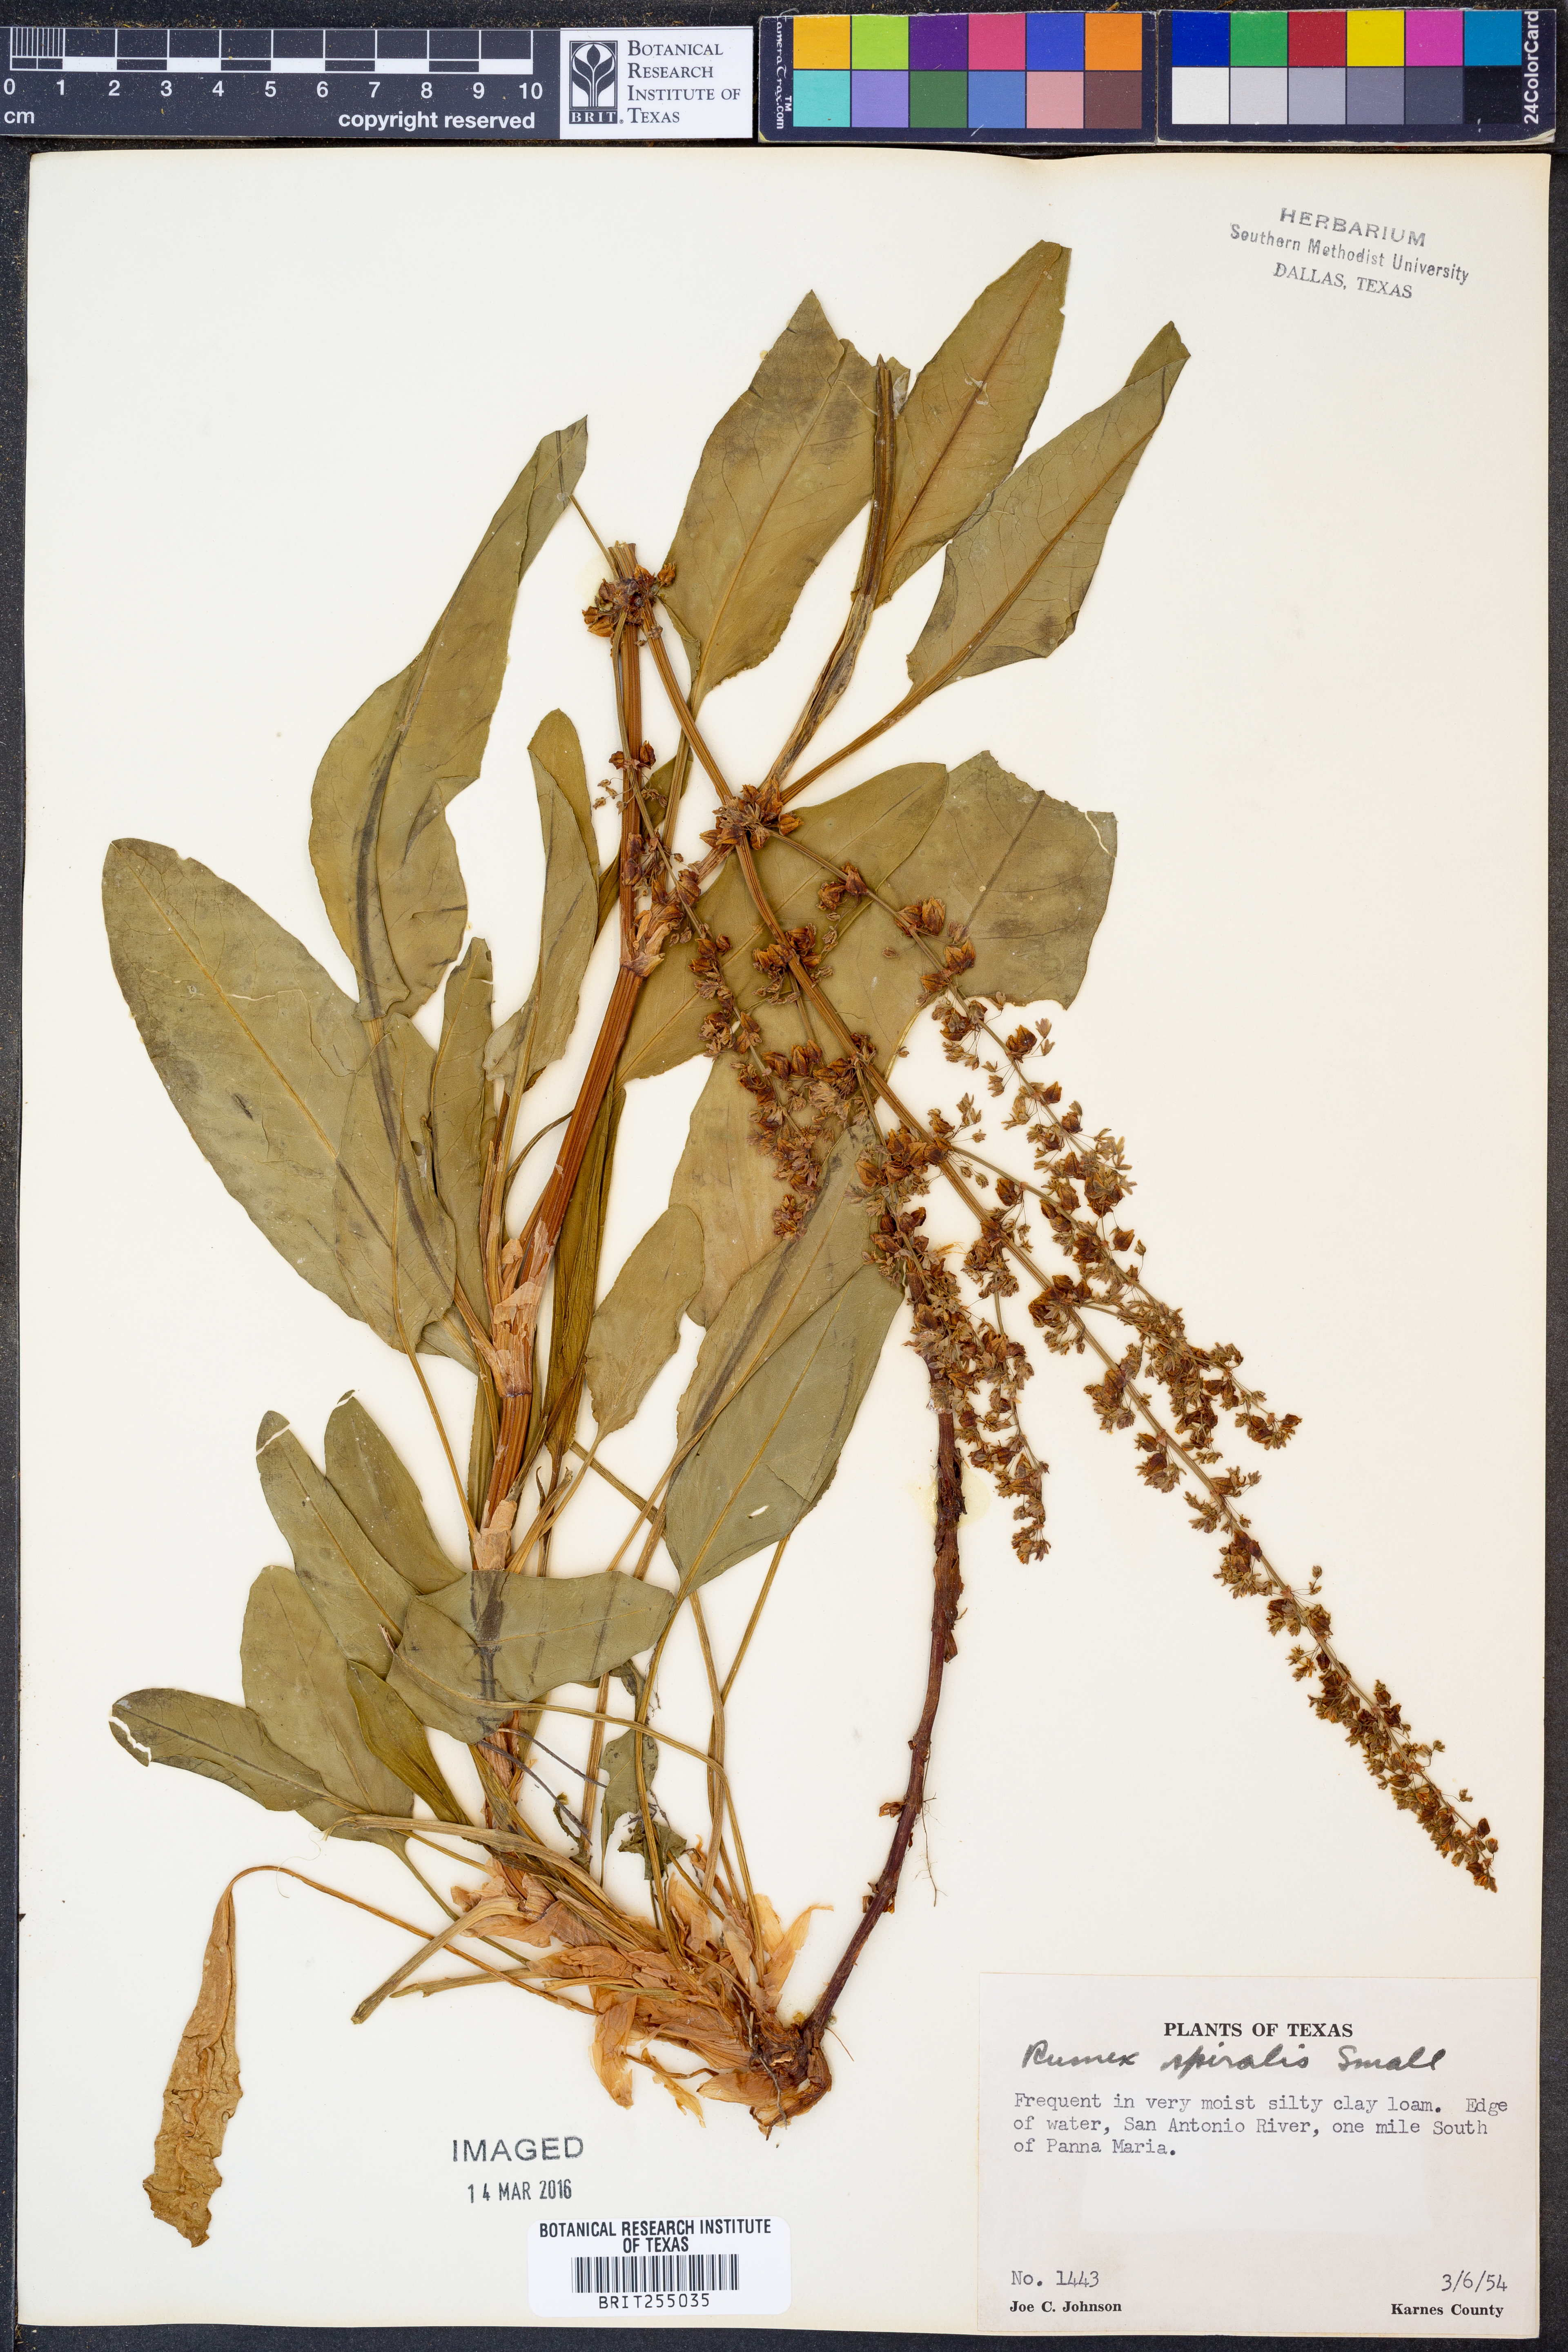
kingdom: Plantae
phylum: Tracheophyta
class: Magnoliopsida
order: Caryophyllales
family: Polygonaceae
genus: Rumex
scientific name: Rumex spiralis
